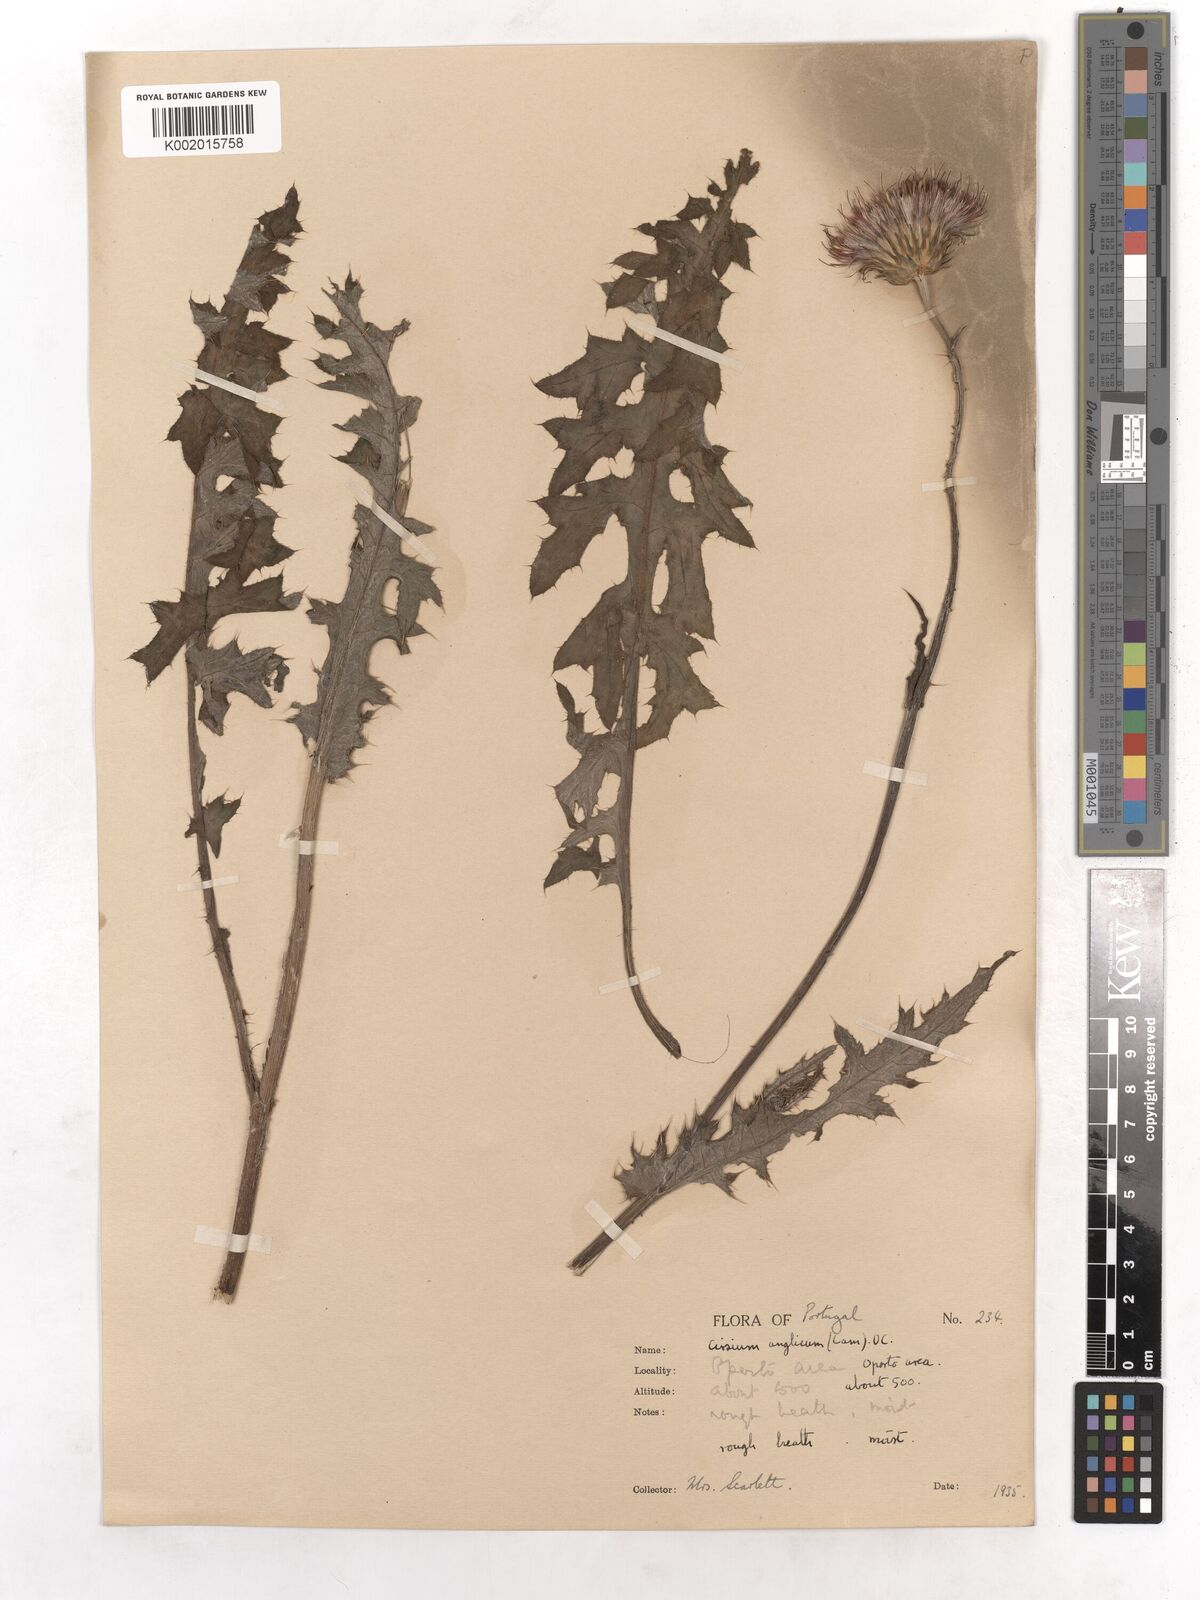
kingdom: Plantae
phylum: Tracheophyta
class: Magnoliopsida
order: Asterales
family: Asteraceae
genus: Cirsium
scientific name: Cirsium dissectum
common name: Meadow thistle
